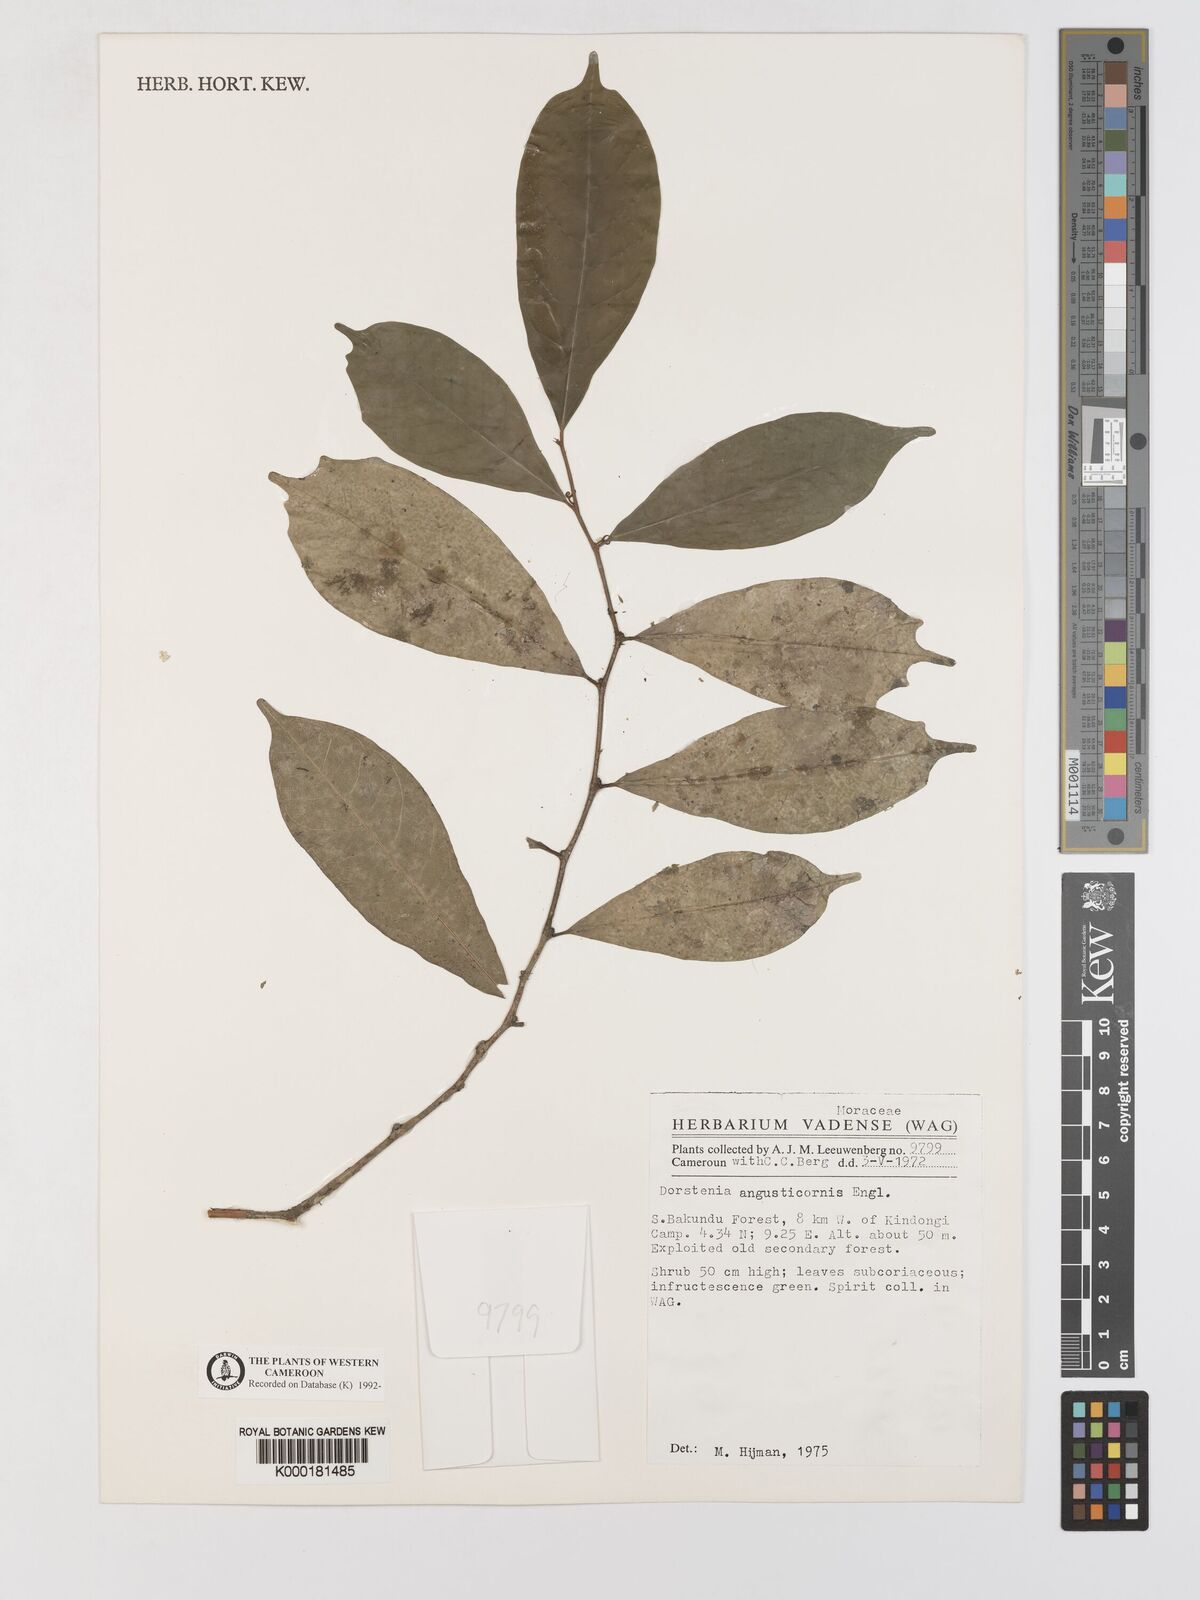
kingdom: Plantae
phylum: Tracheophyta
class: Magnoliopsida
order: Rosales
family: Moraceae
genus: Hijmania
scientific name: Hijmania angusticornis
